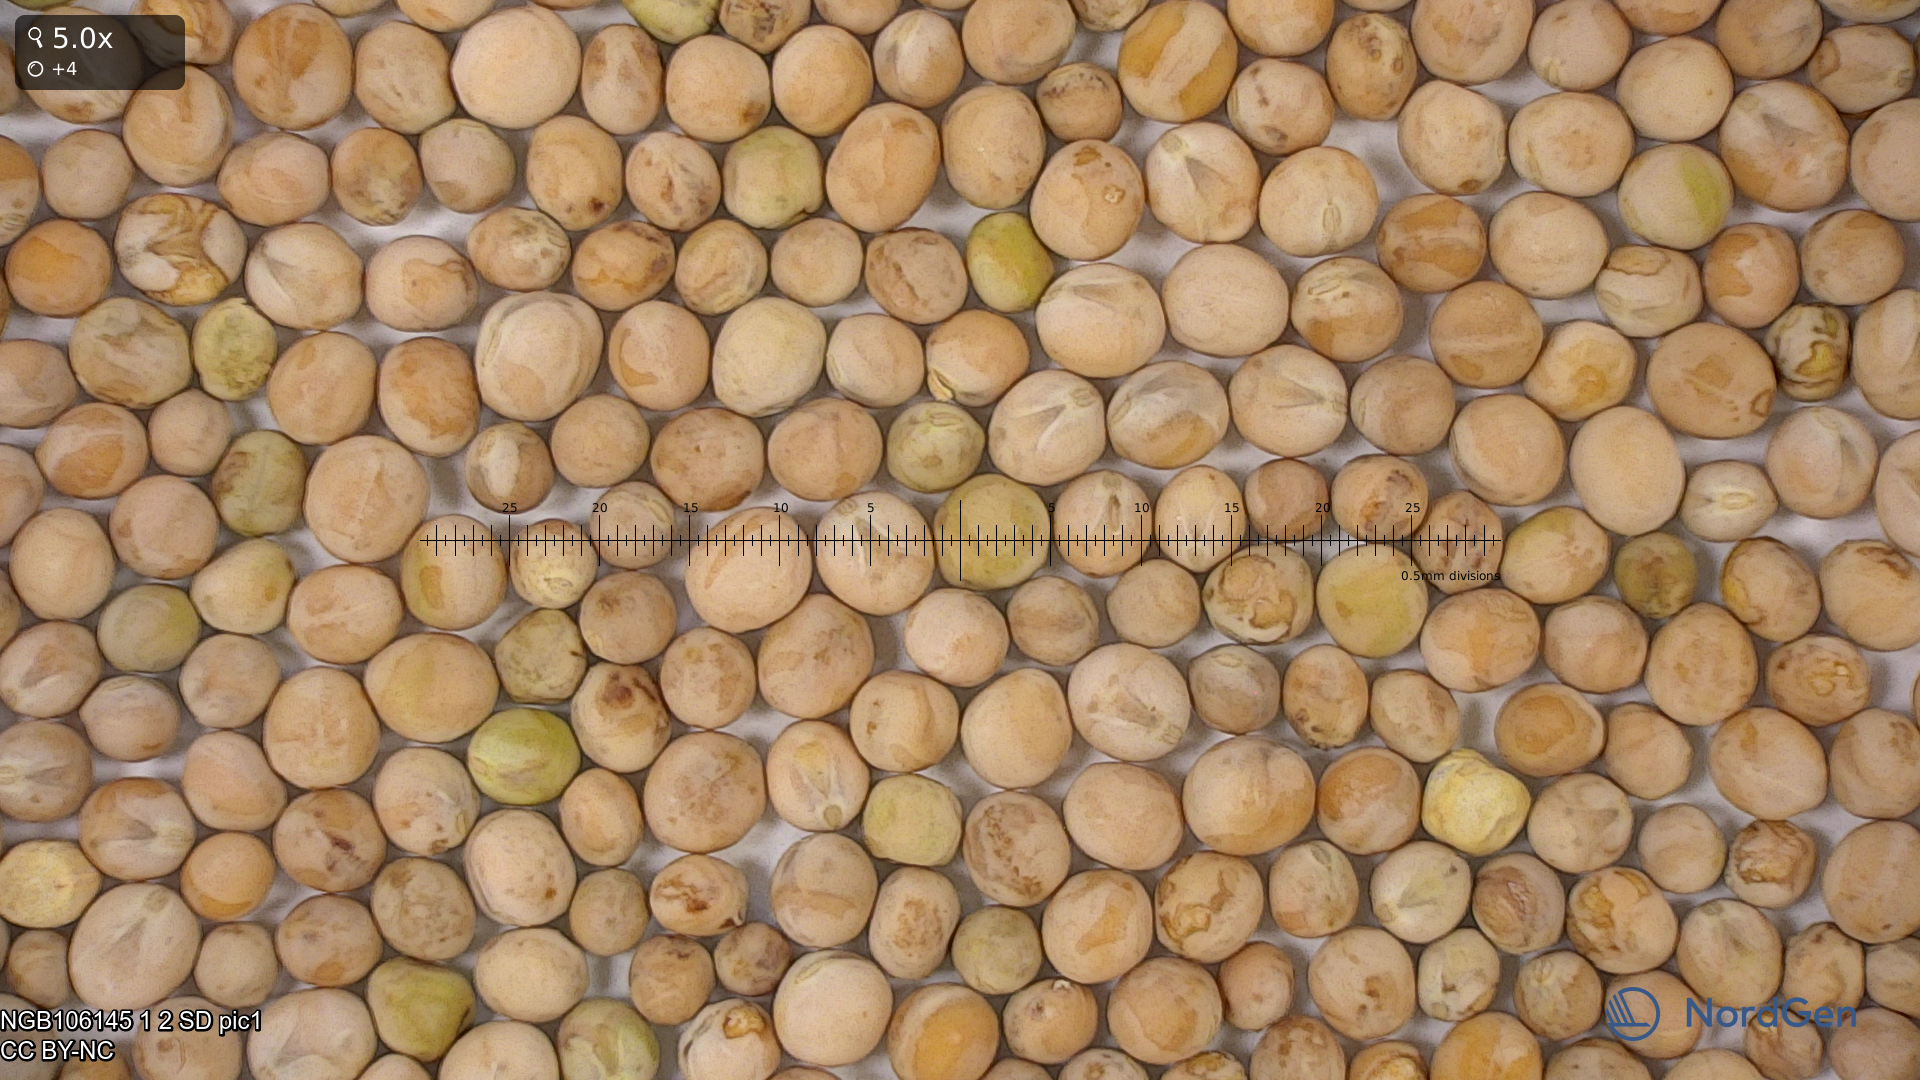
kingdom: Plantae
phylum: Tracheophyta
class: Magnoliopsida
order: Fabales
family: Fabaceae
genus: Lathyrus
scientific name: Lathyrus oleraceus
